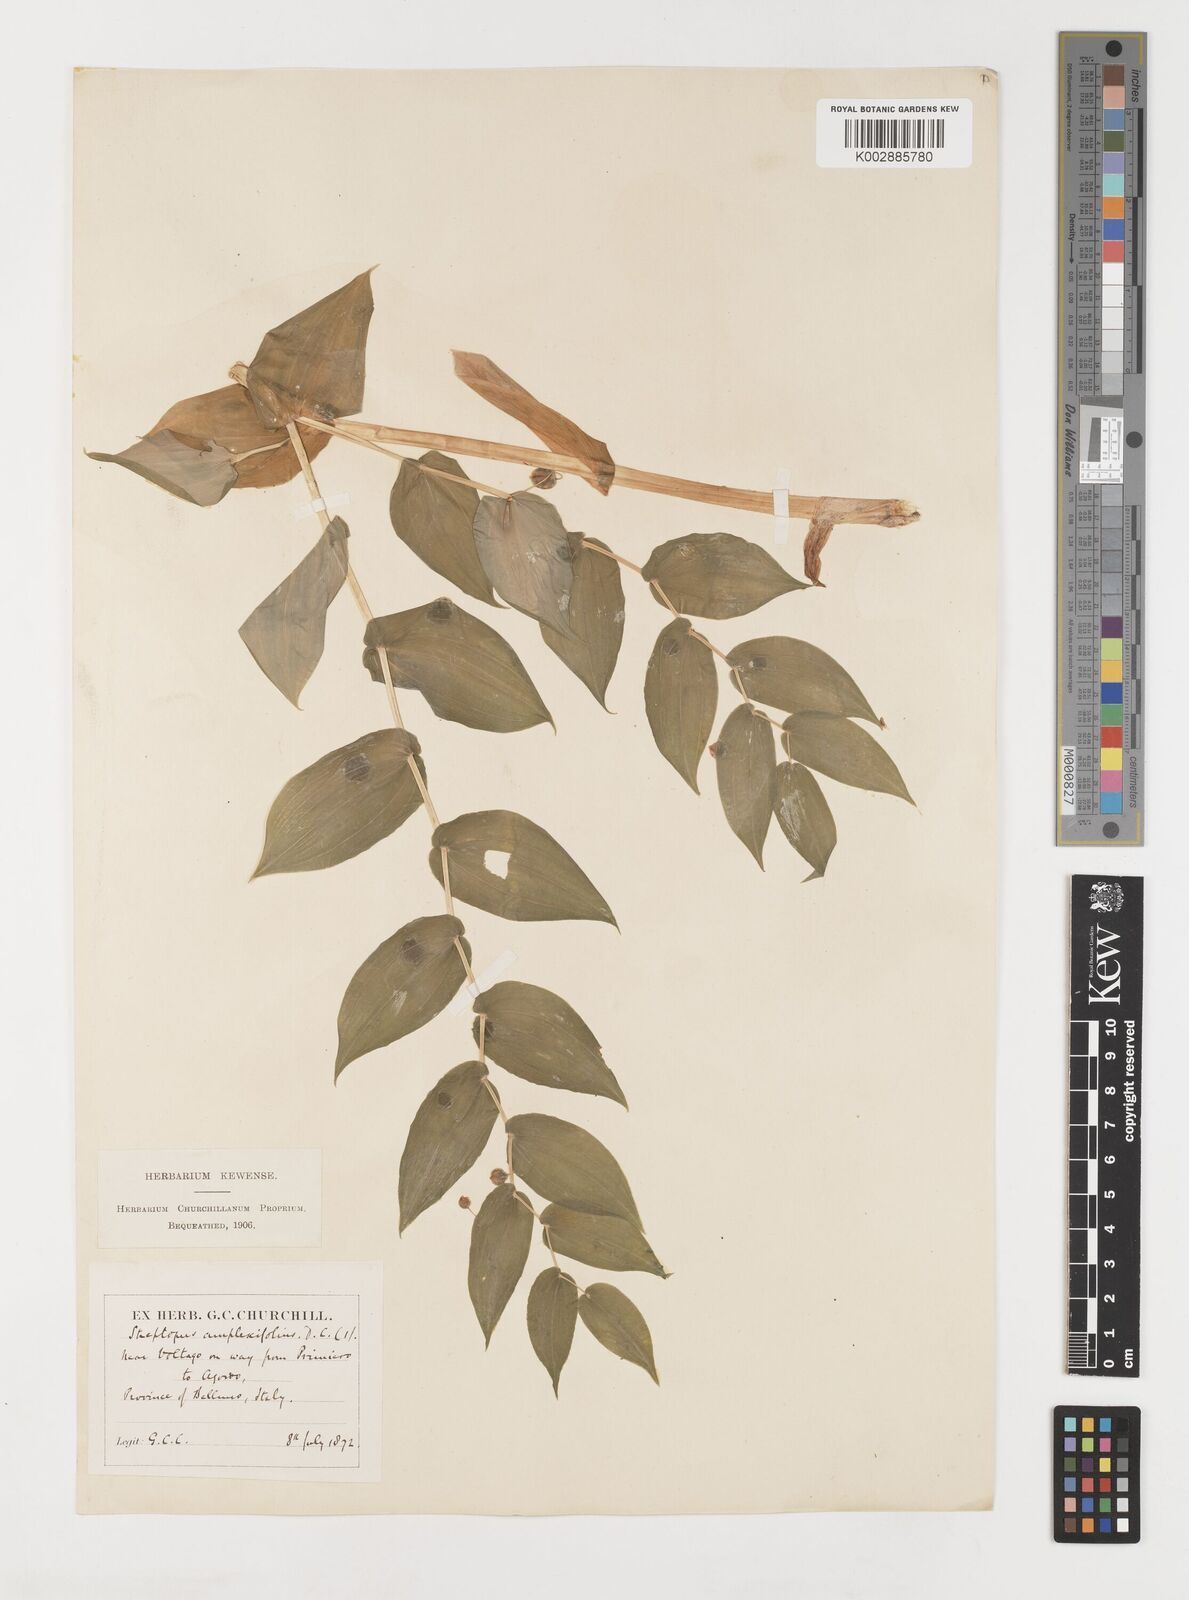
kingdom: Plantae
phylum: Tracheophyta
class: Liliopsida
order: Liliales
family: Liliaceae
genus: Streptopus
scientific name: Streptopus amplexifolius
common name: Clasp twisted stalk
